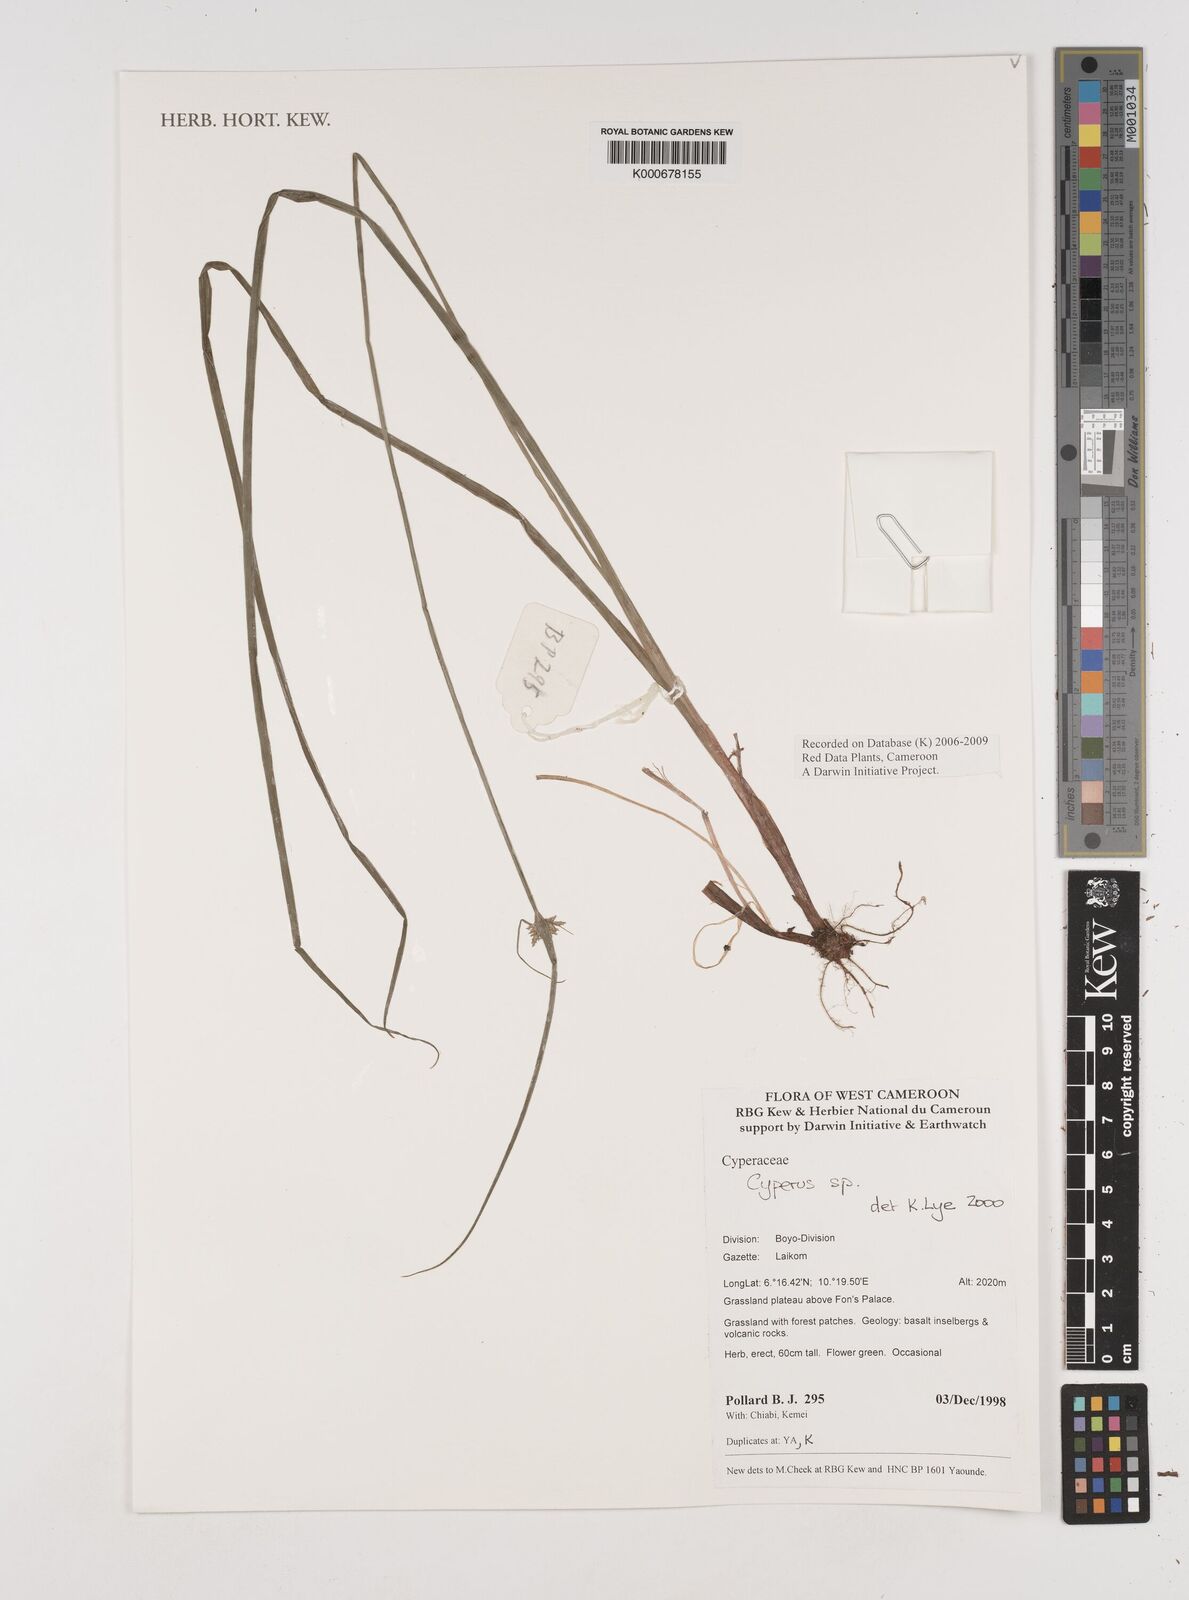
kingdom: Plantae
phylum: Tracheophyta
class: Liliopsida
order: Poales
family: Cyperaceae
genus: Cyperus
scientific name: Cyperus
